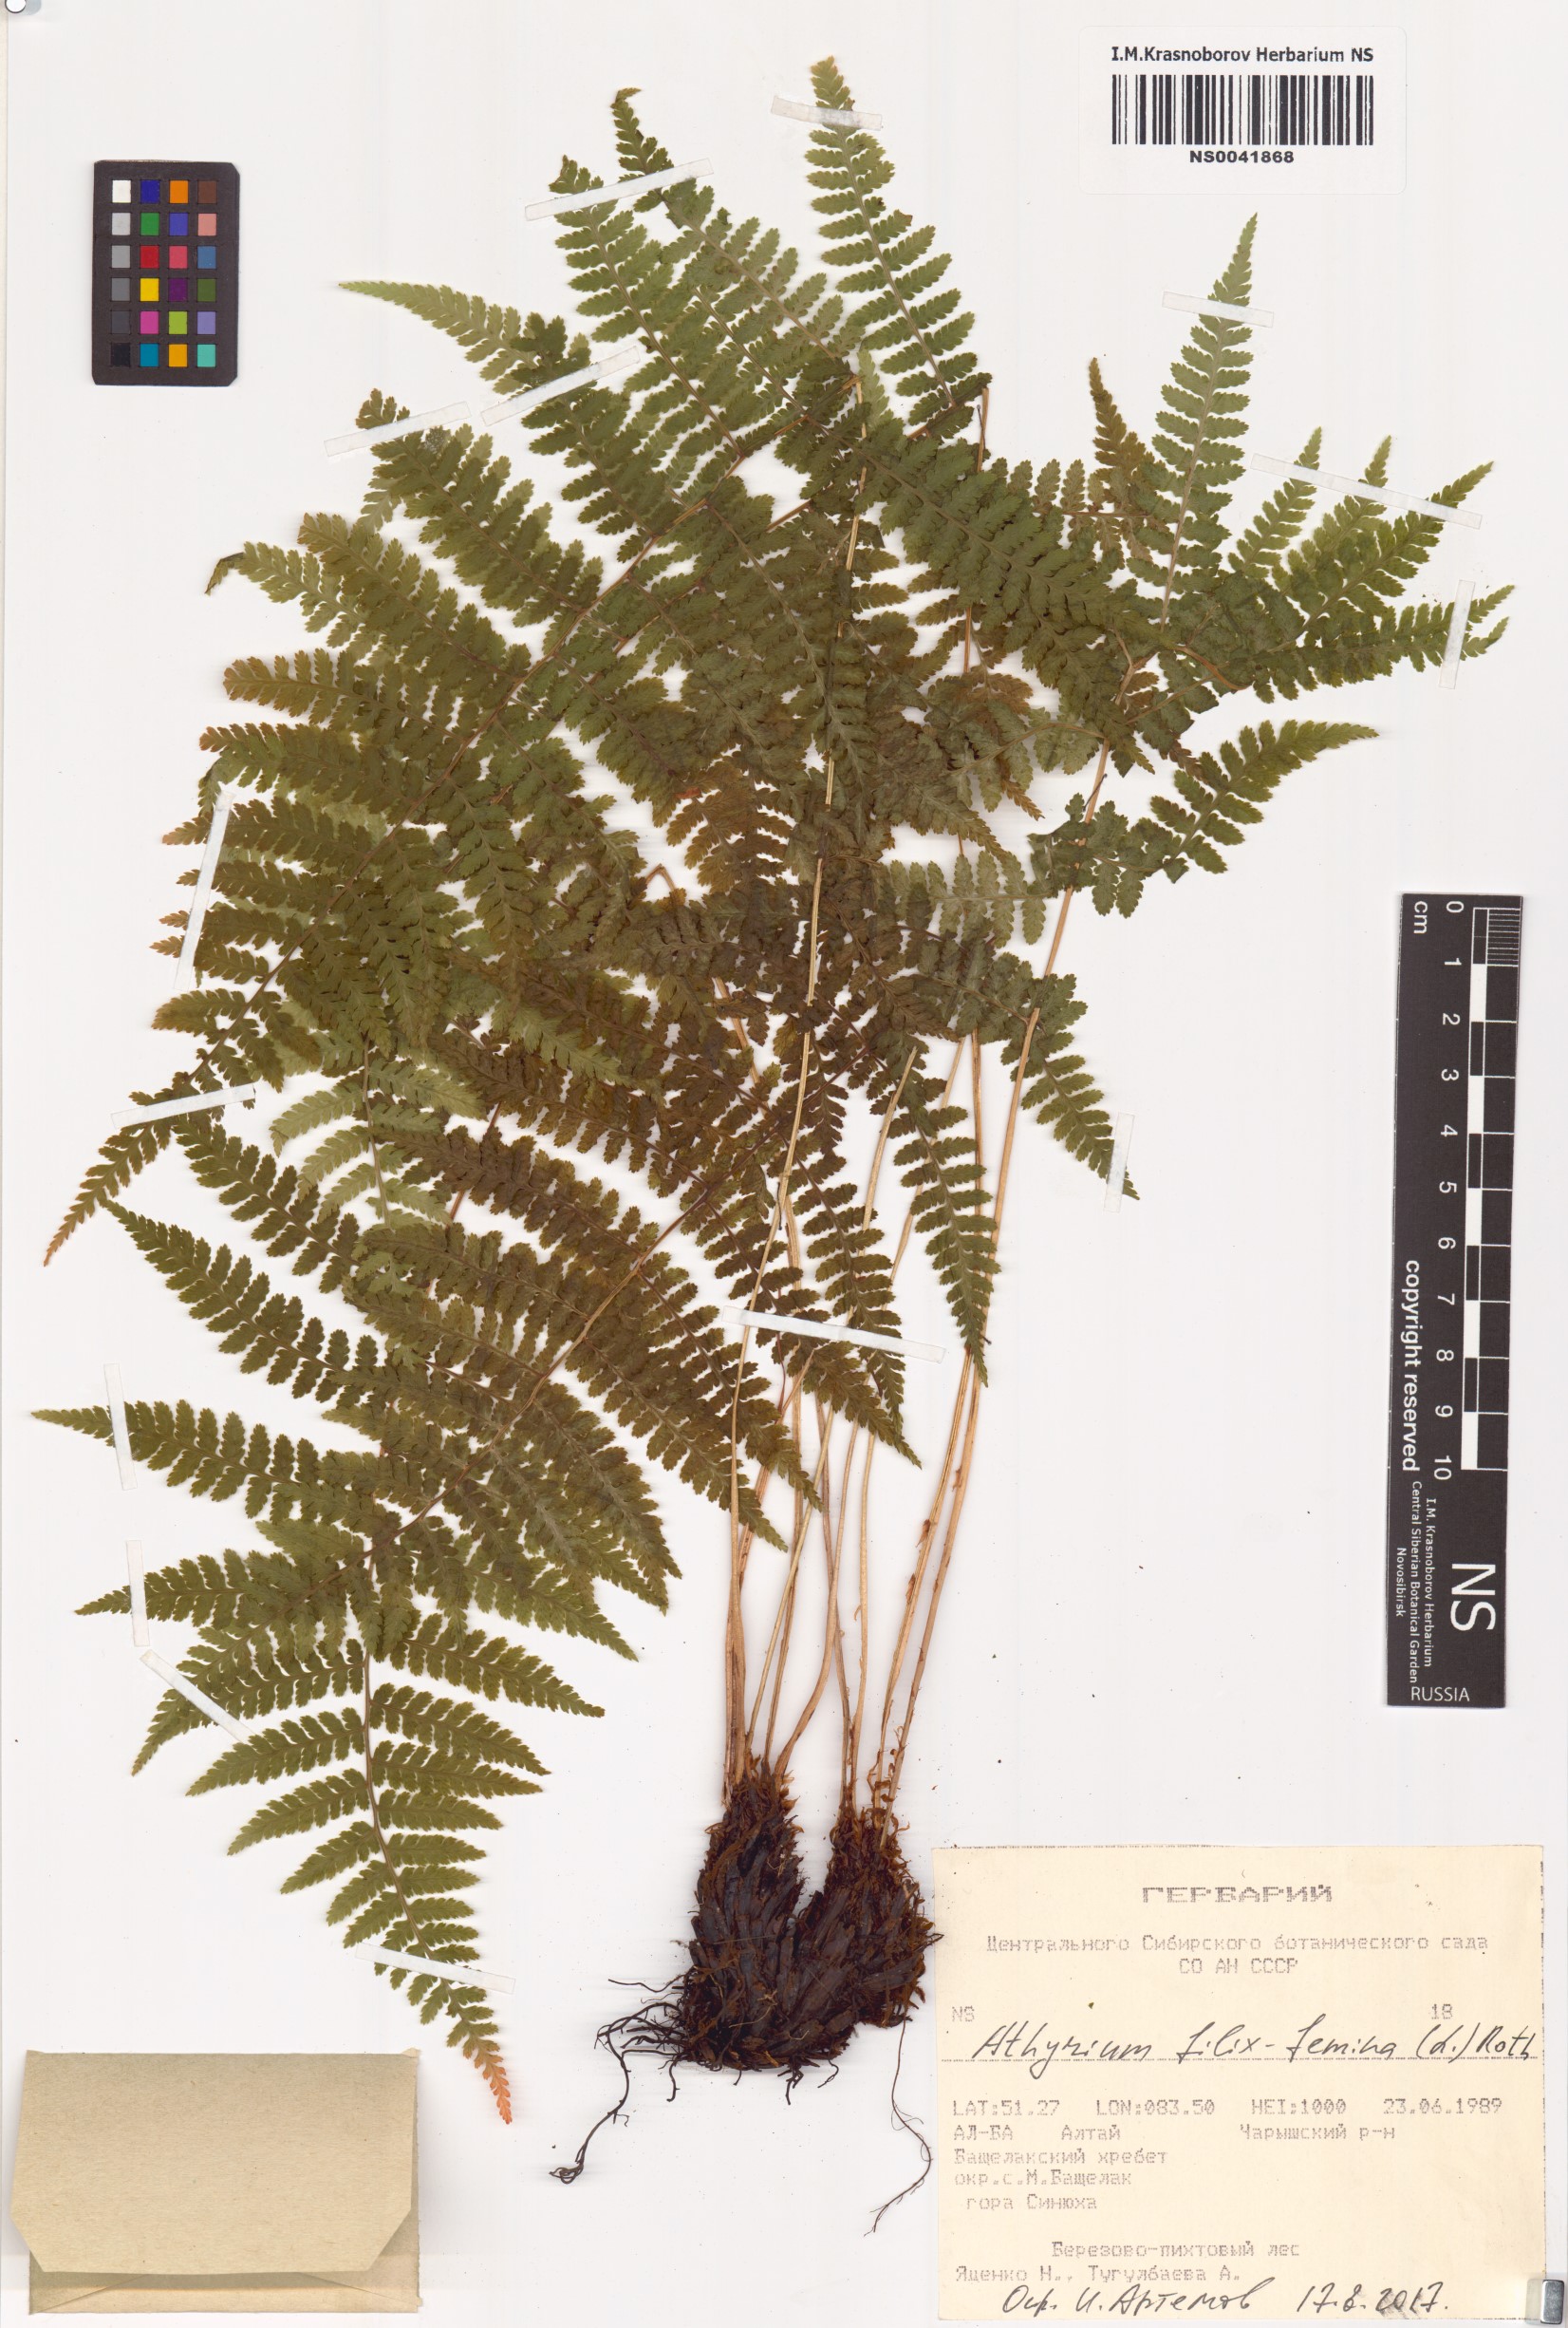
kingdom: Plantae
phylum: Tracheophyta
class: Polypodiopsida
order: Polypodiales
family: Athyriaceae
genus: Athyrium
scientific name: Athyrium filix-femina
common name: Lady fern
